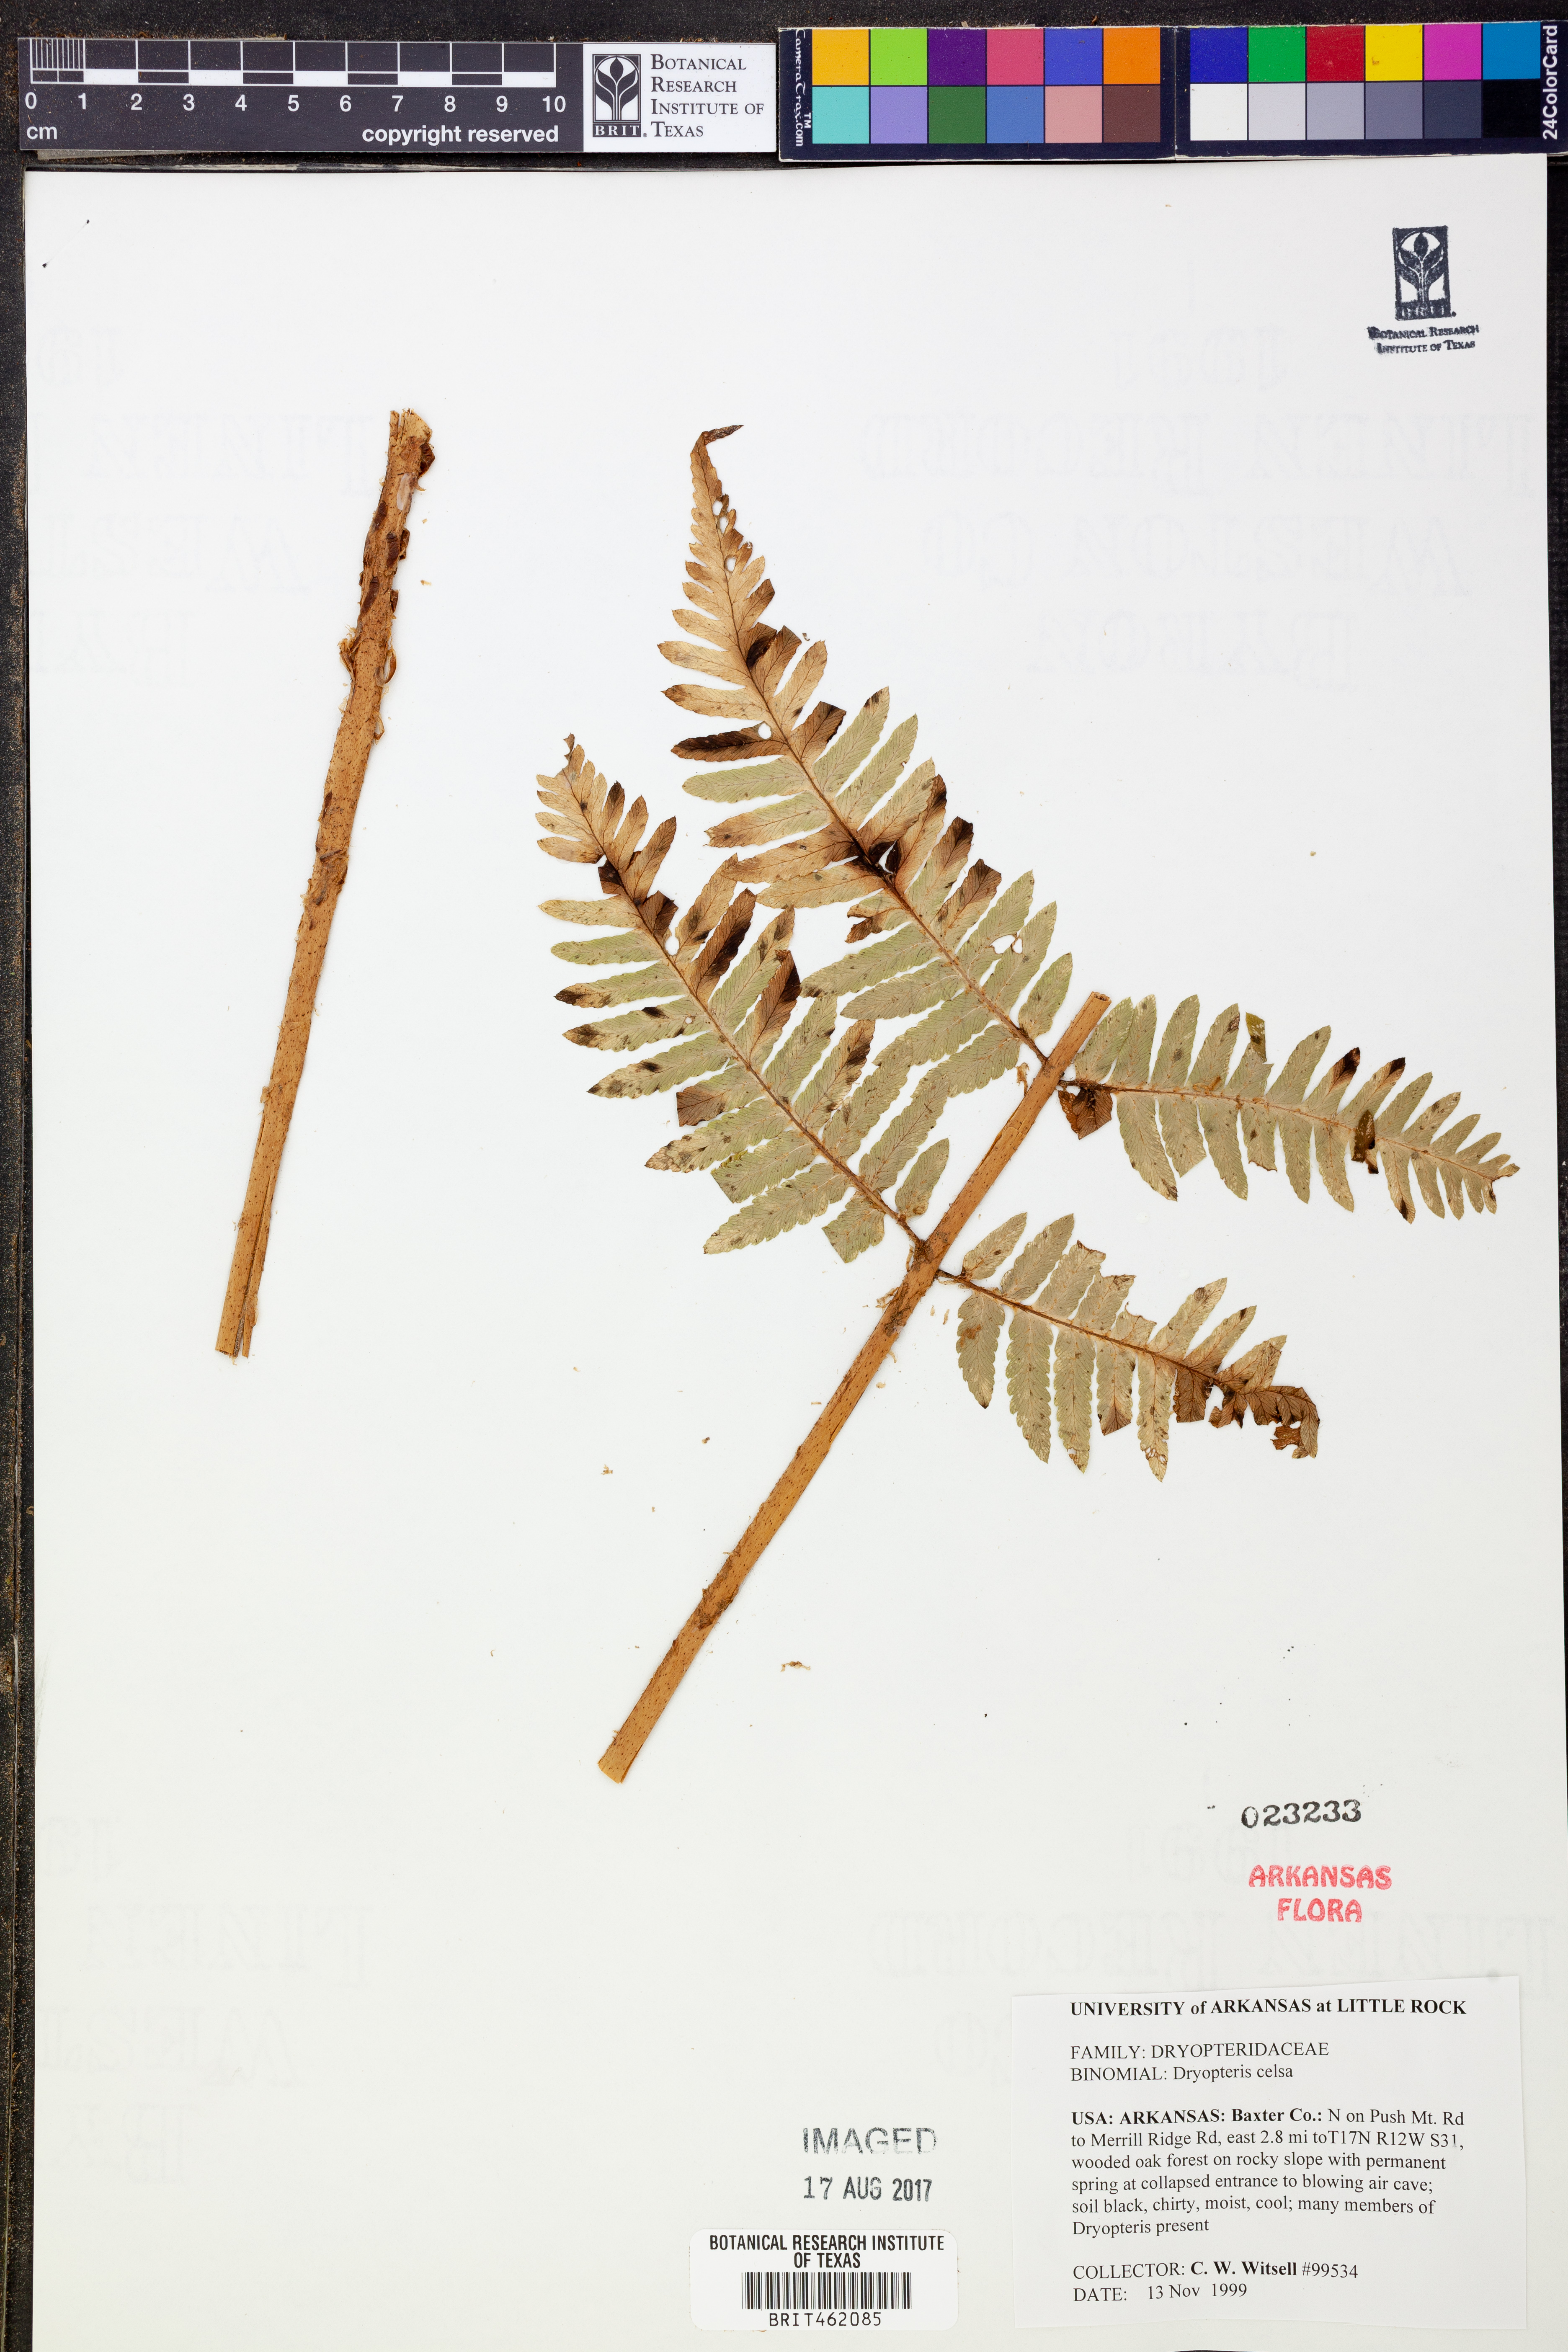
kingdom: Plantae
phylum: Tracheophyta
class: Polypodiopsida
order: Polypodiales
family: Dryopteridaceae
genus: Dryopteris
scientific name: Dryopteris celsa
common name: Log fern
